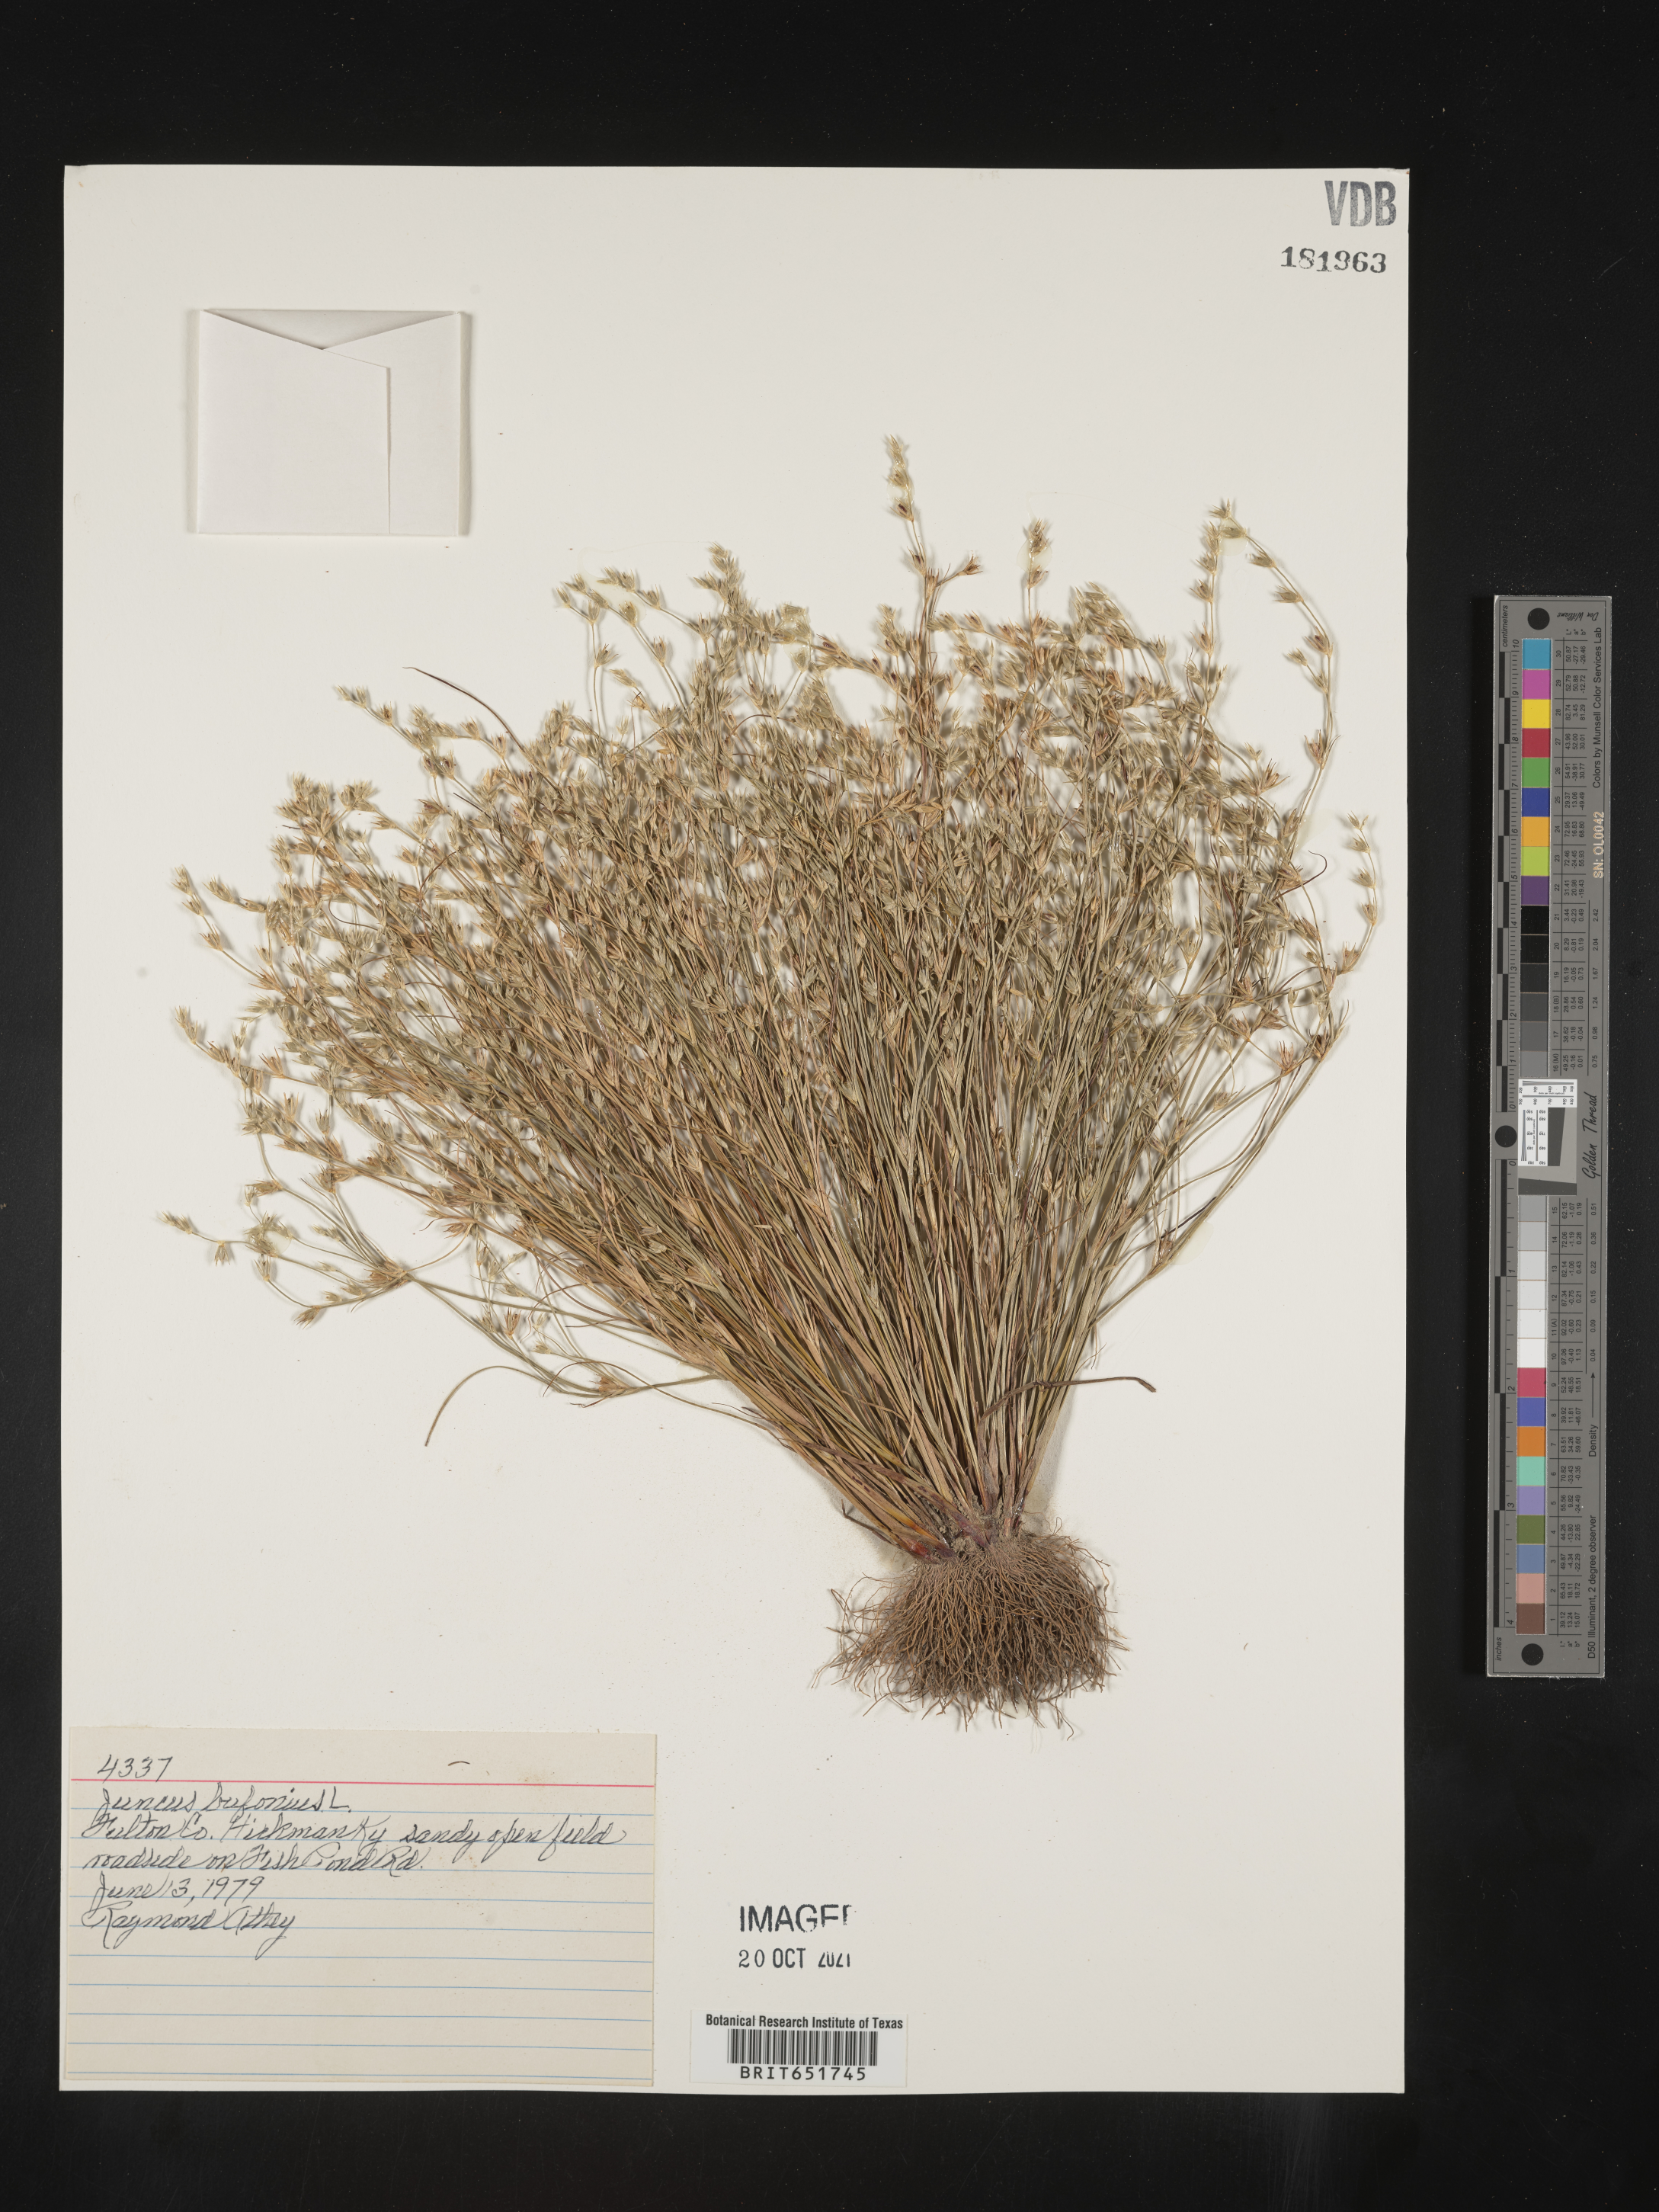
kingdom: Plantae
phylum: Tracheophyta
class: Liliopsida
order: Poales
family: Juncaceae
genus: Juncus
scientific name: Juncus bufonius
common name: Toad rush
